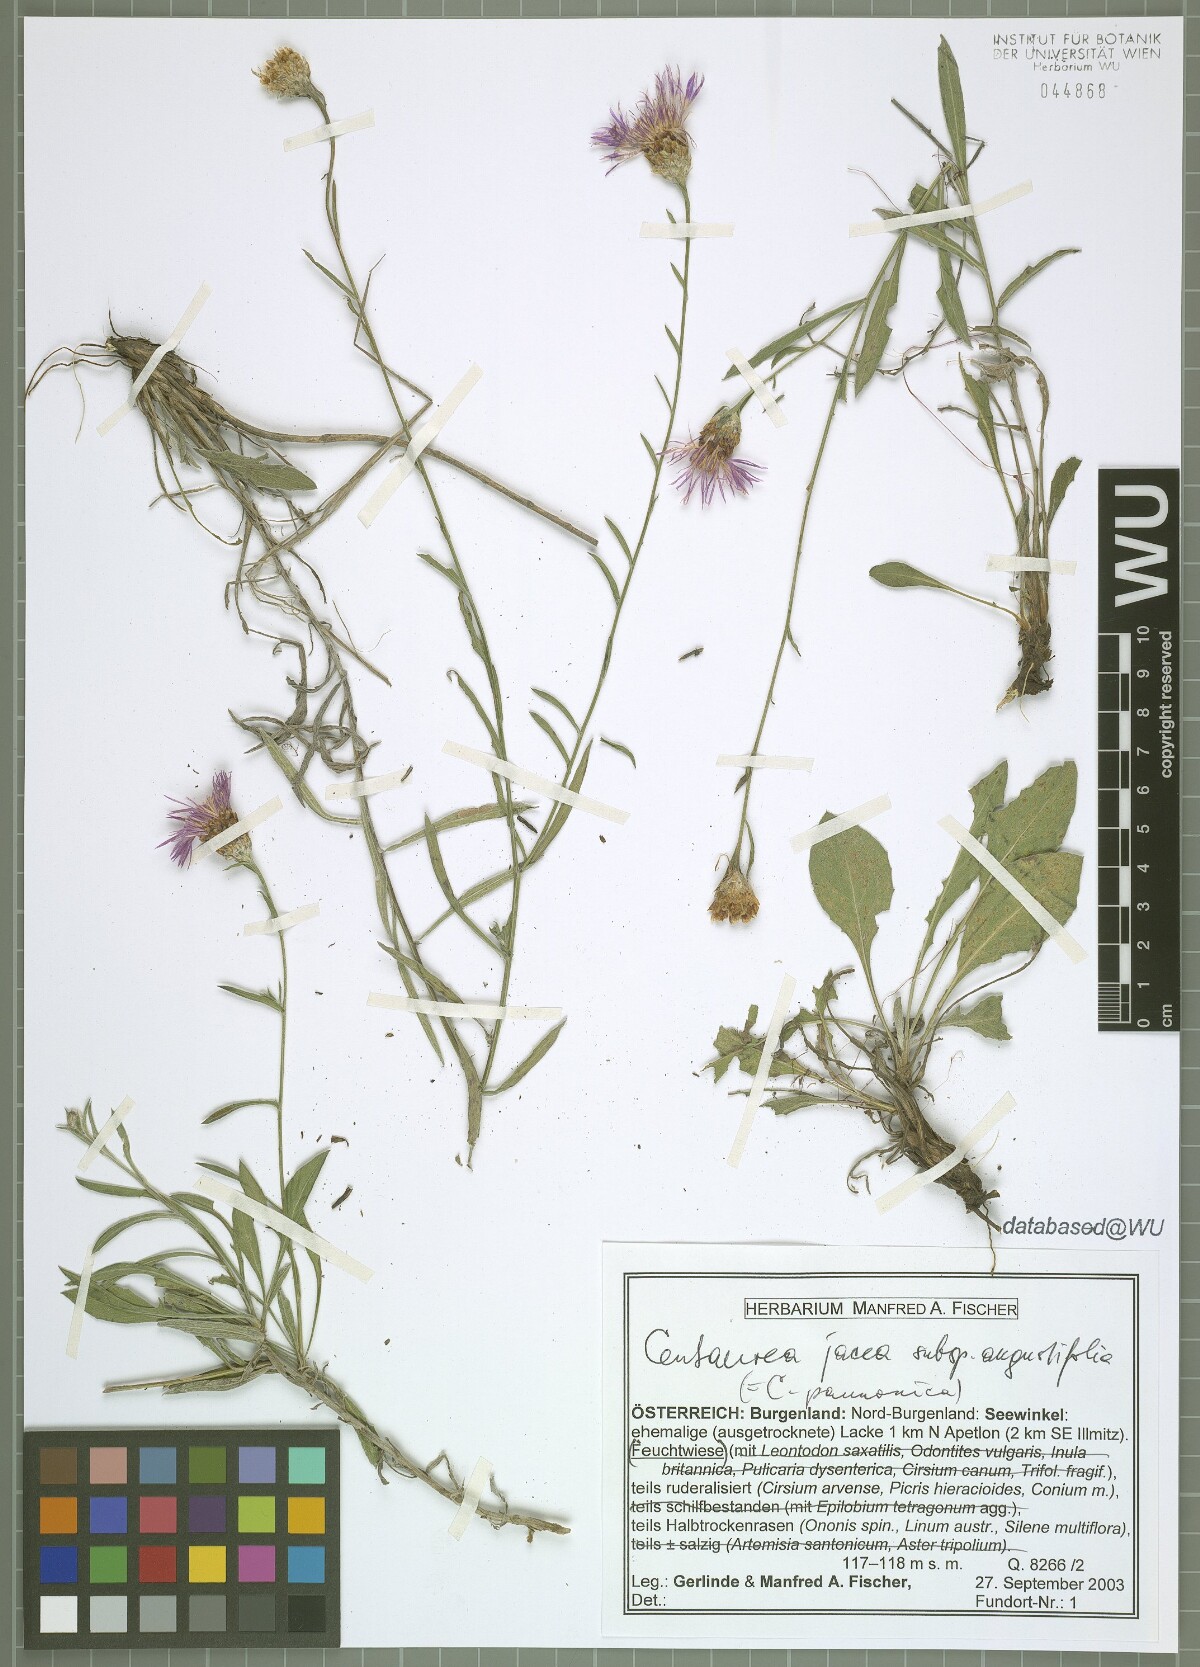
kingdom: Plantae
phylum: Tracheophyta
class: Magnoliopsida
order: Asterales
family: Asteraceae
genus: Centaurea
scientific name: Centaurea pannonica
